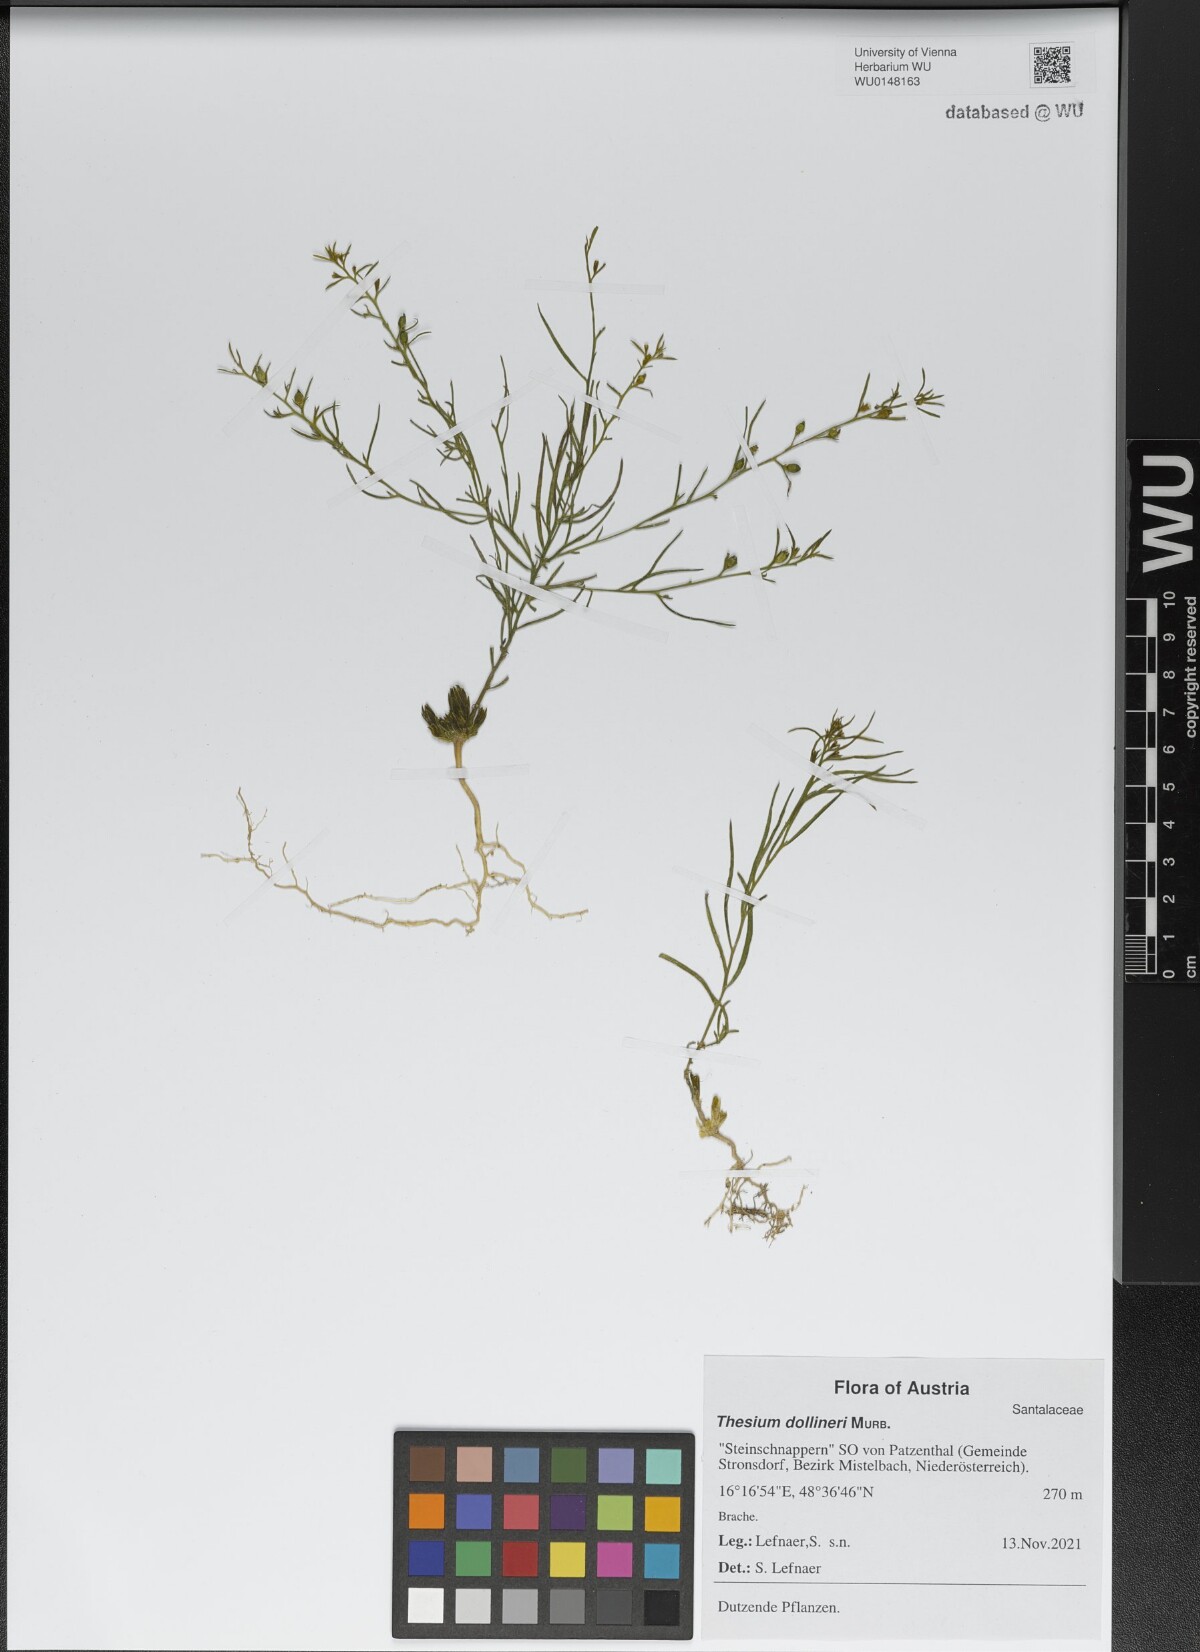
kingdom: Plantae
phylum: Tracheophyta
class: Magnoliopsida
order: Santalales
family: Thesiaceae
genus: Thesium
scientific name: Thesium dollineri
